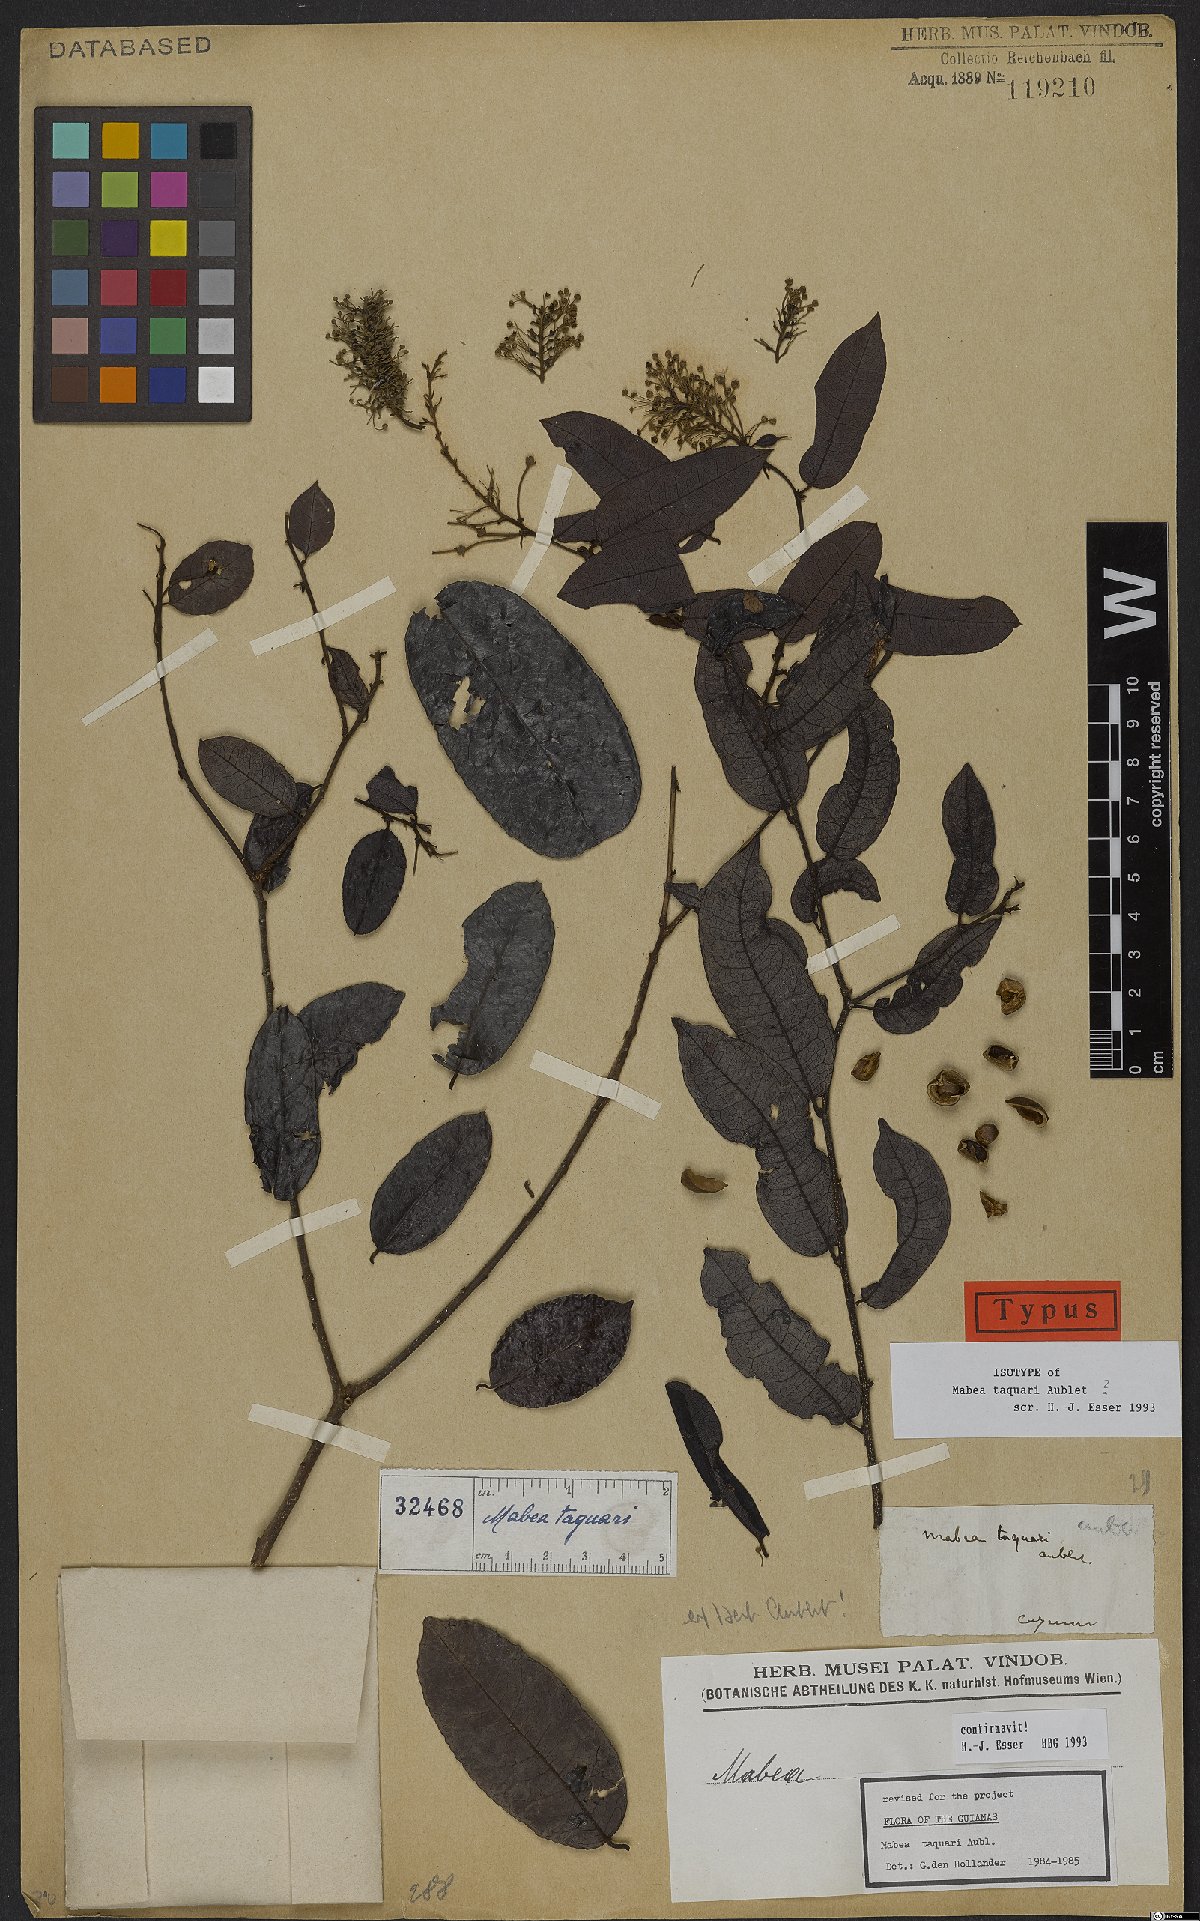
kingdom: Plantae
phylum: Tracheophyta
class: Magnoliopsida
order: Malpighiales
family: Euphorbiaceae
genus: Mabea
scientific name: Mabea taquari
